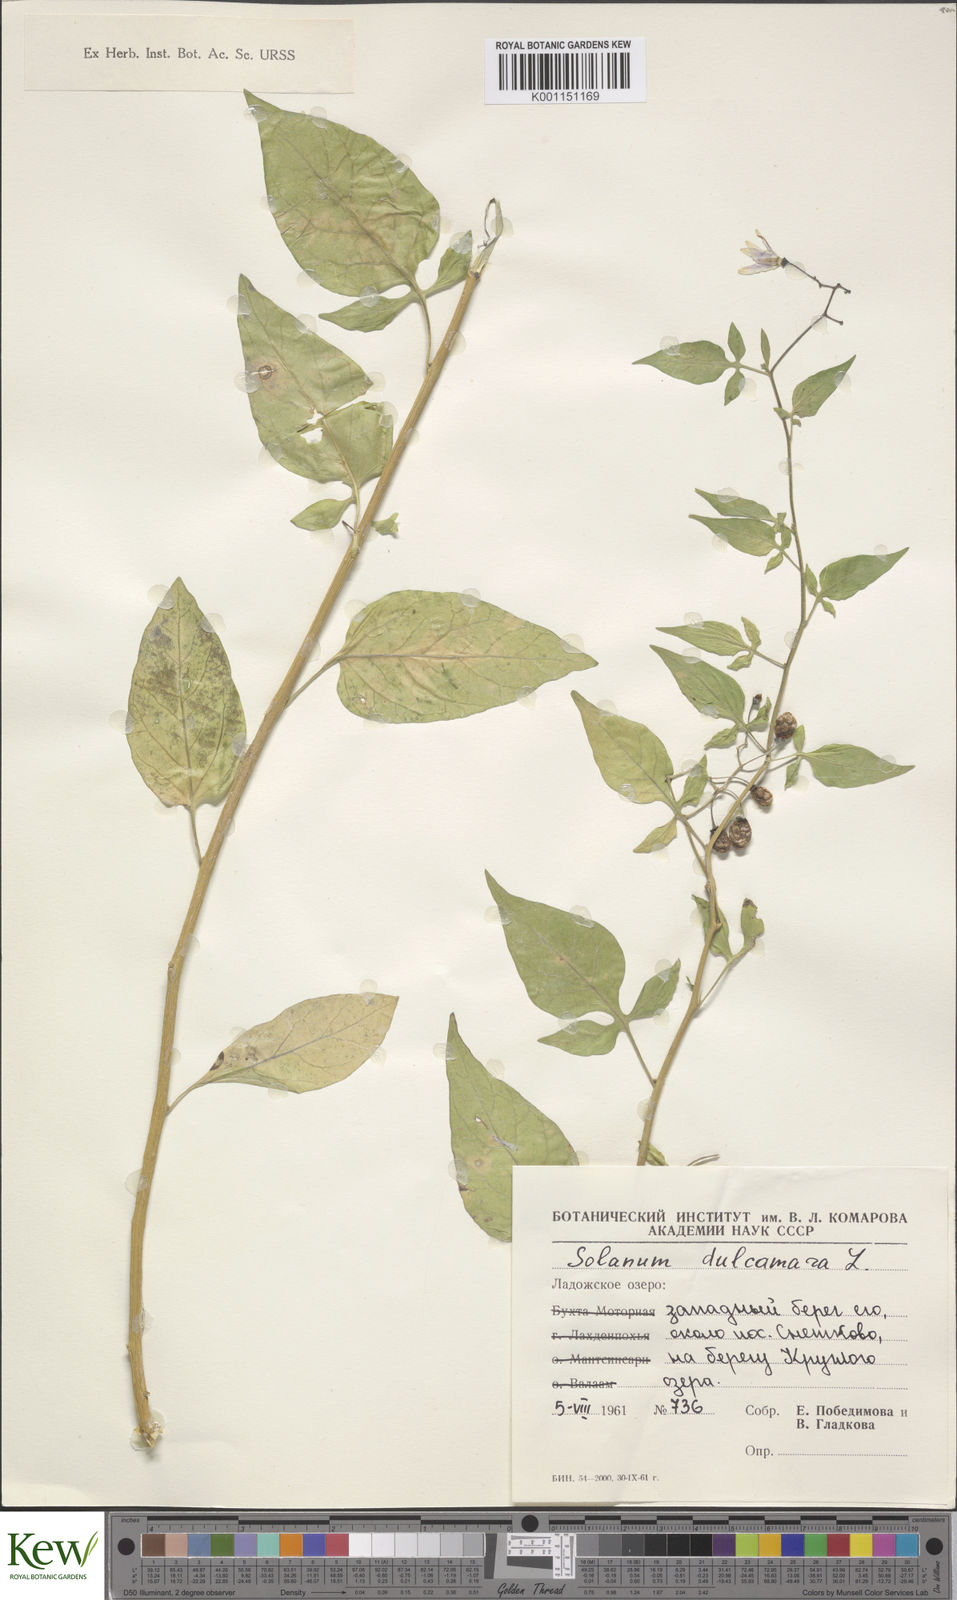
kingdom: Plantae
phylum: Tracheophyta
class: Magnoliopsida
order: Solanales
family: Solanaceae
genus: Solanum
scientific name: Solanum dulcamara
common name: Climbing nightshade
